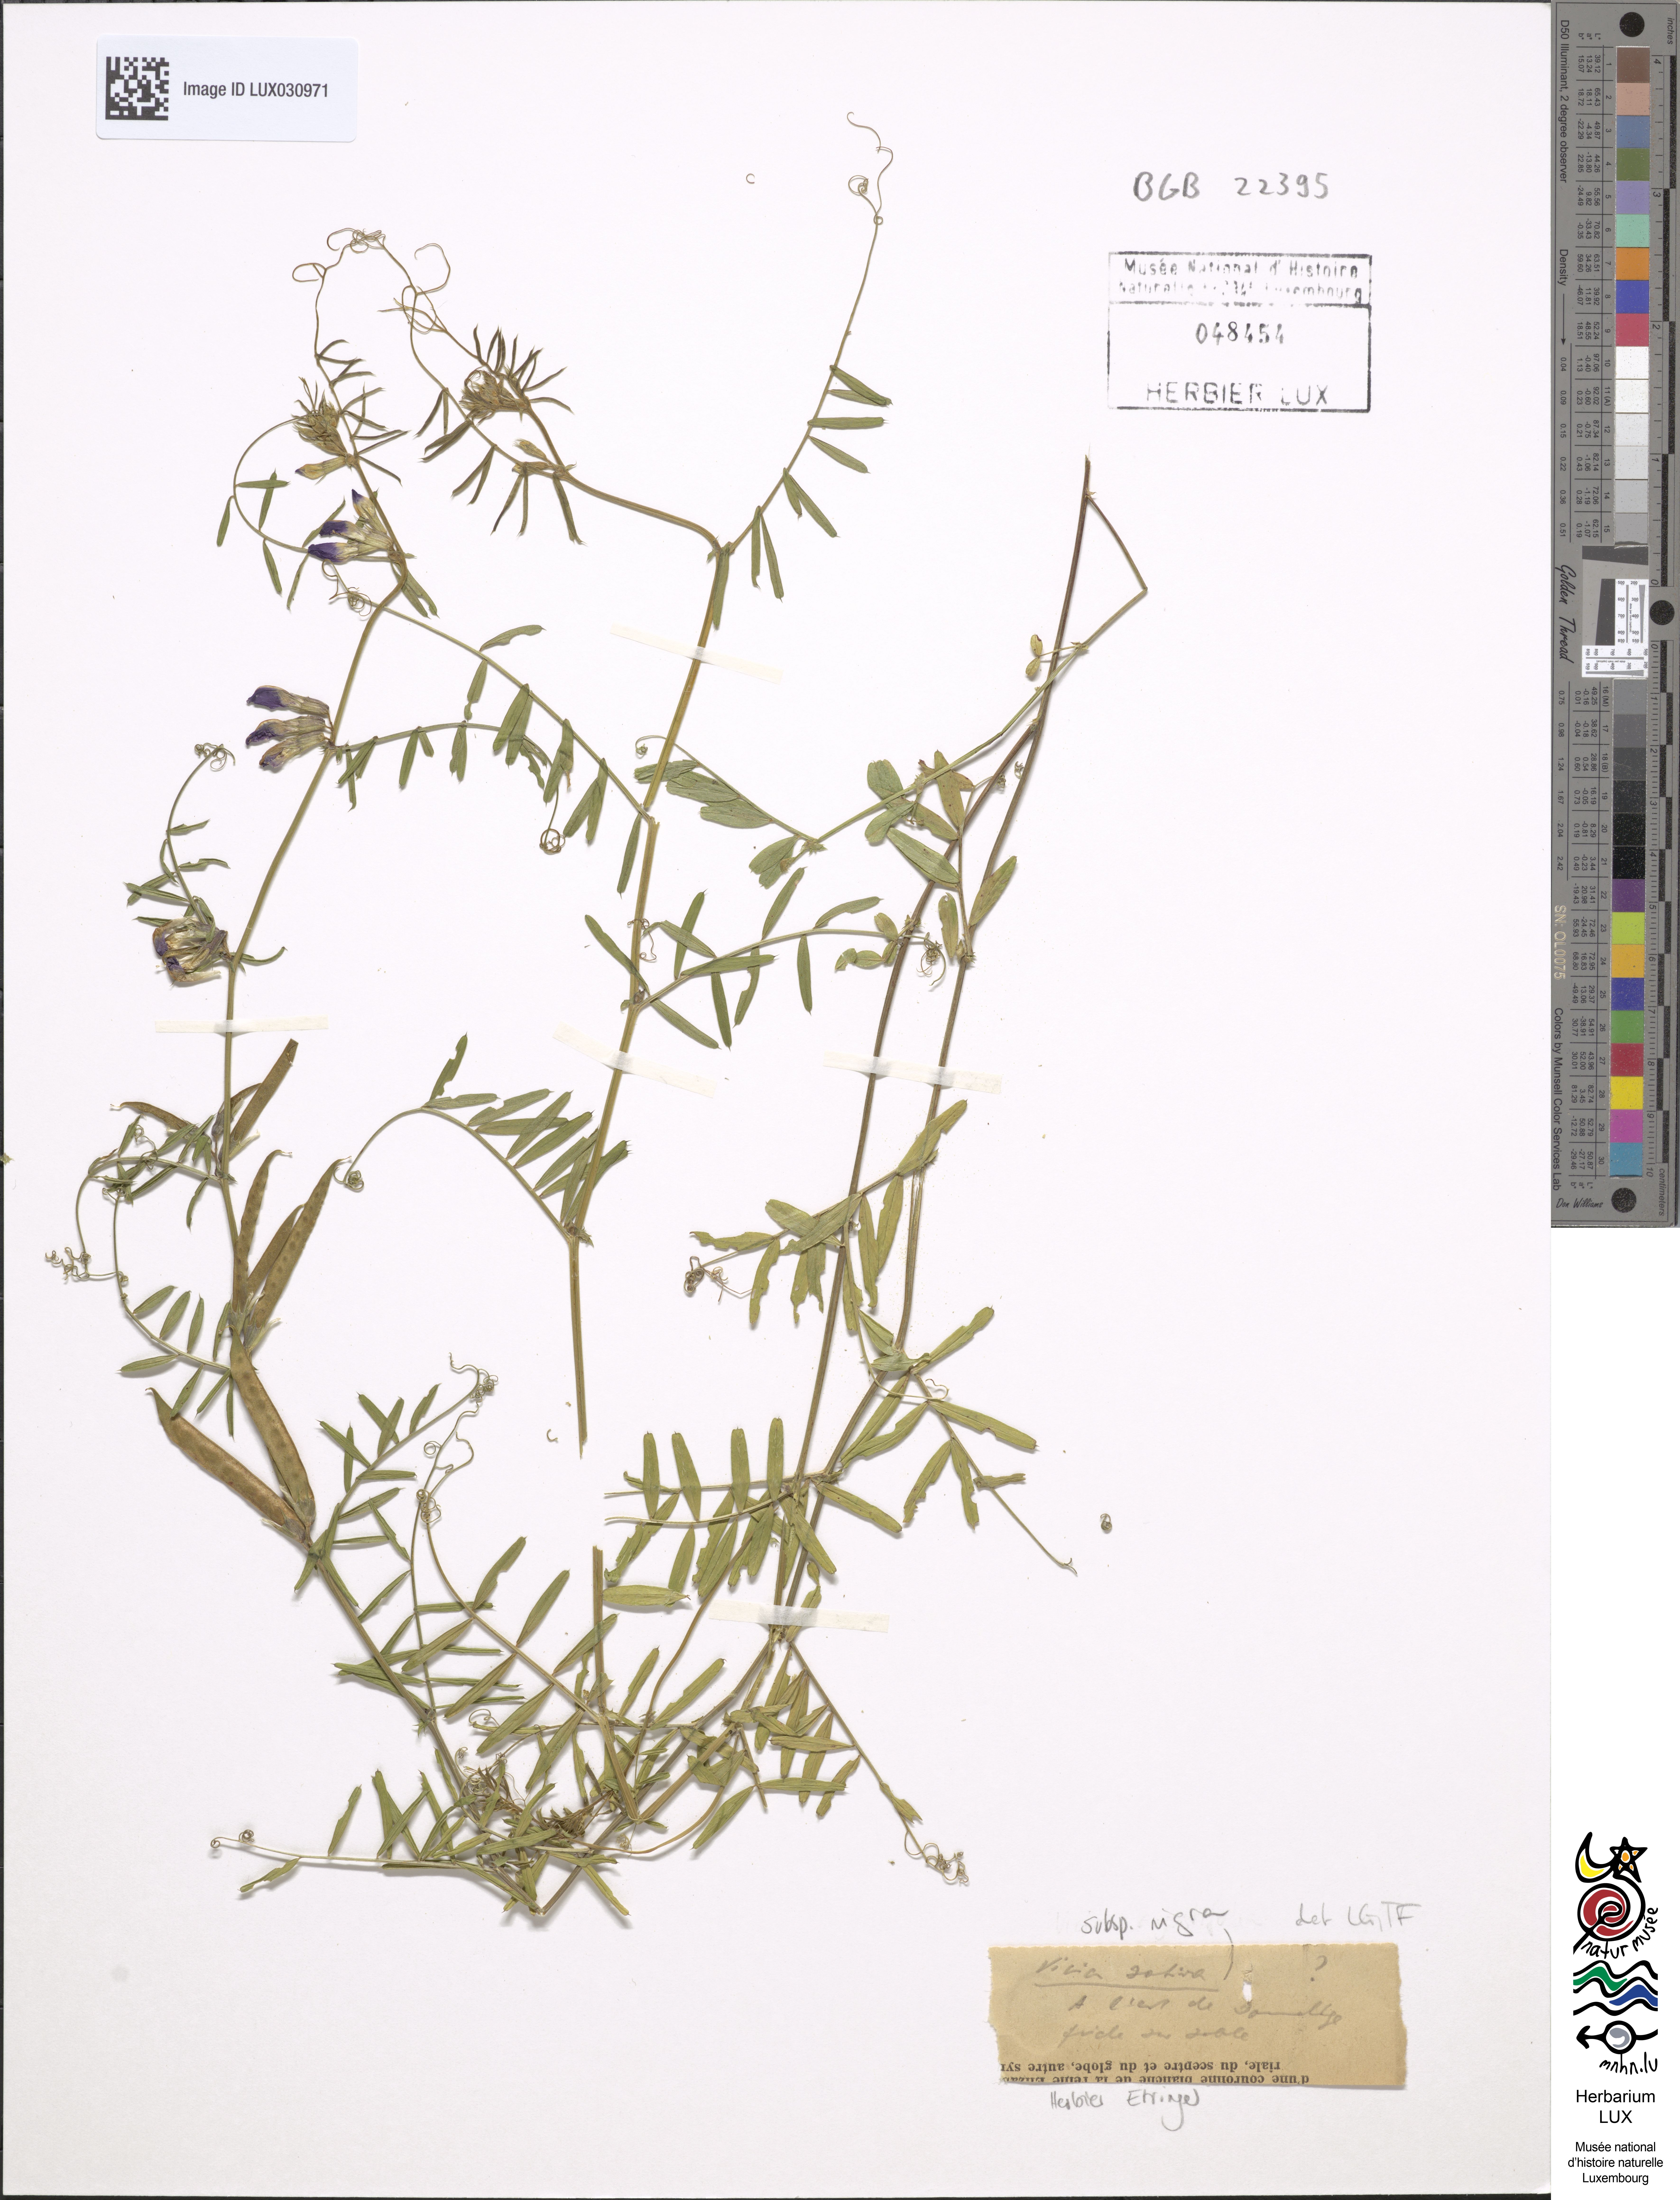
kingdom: Plantae
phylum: Tracheophyta
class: Magnoliopsida
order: Fabales
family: Fabaceae
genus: Vicia
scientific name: Vicia sativa
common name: Garden vetch
